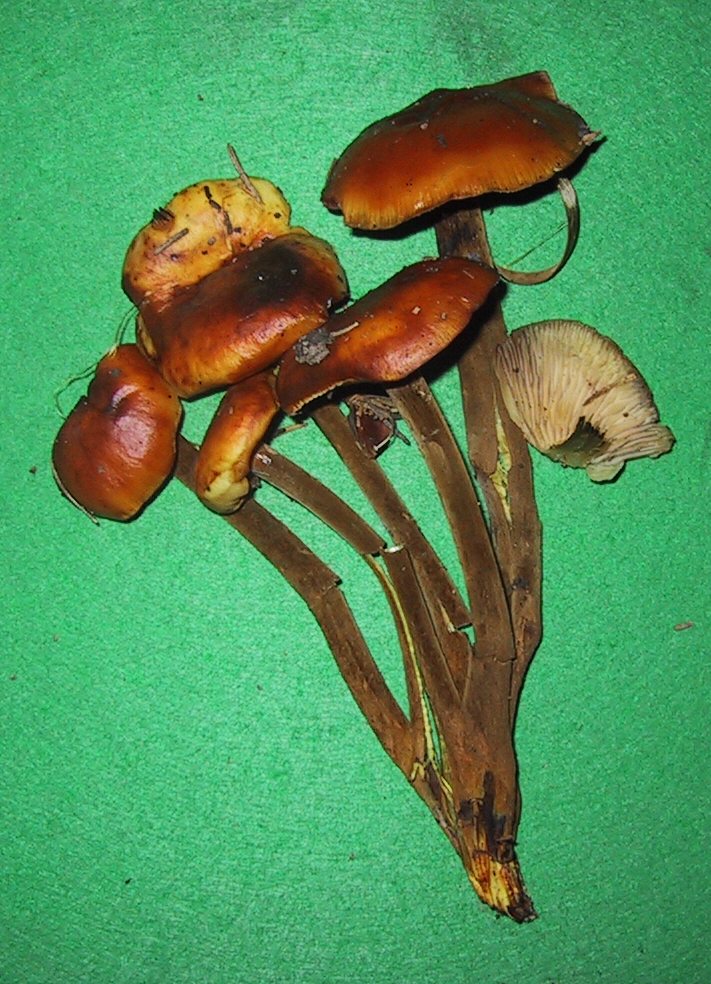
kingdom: Fungi
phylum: Basidiomycota
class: Agaricomycetes
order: Agaricales
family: Physalacriaceae
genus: Flammulina
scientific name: Flammulina velutipes
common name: gul fløjlsfod
